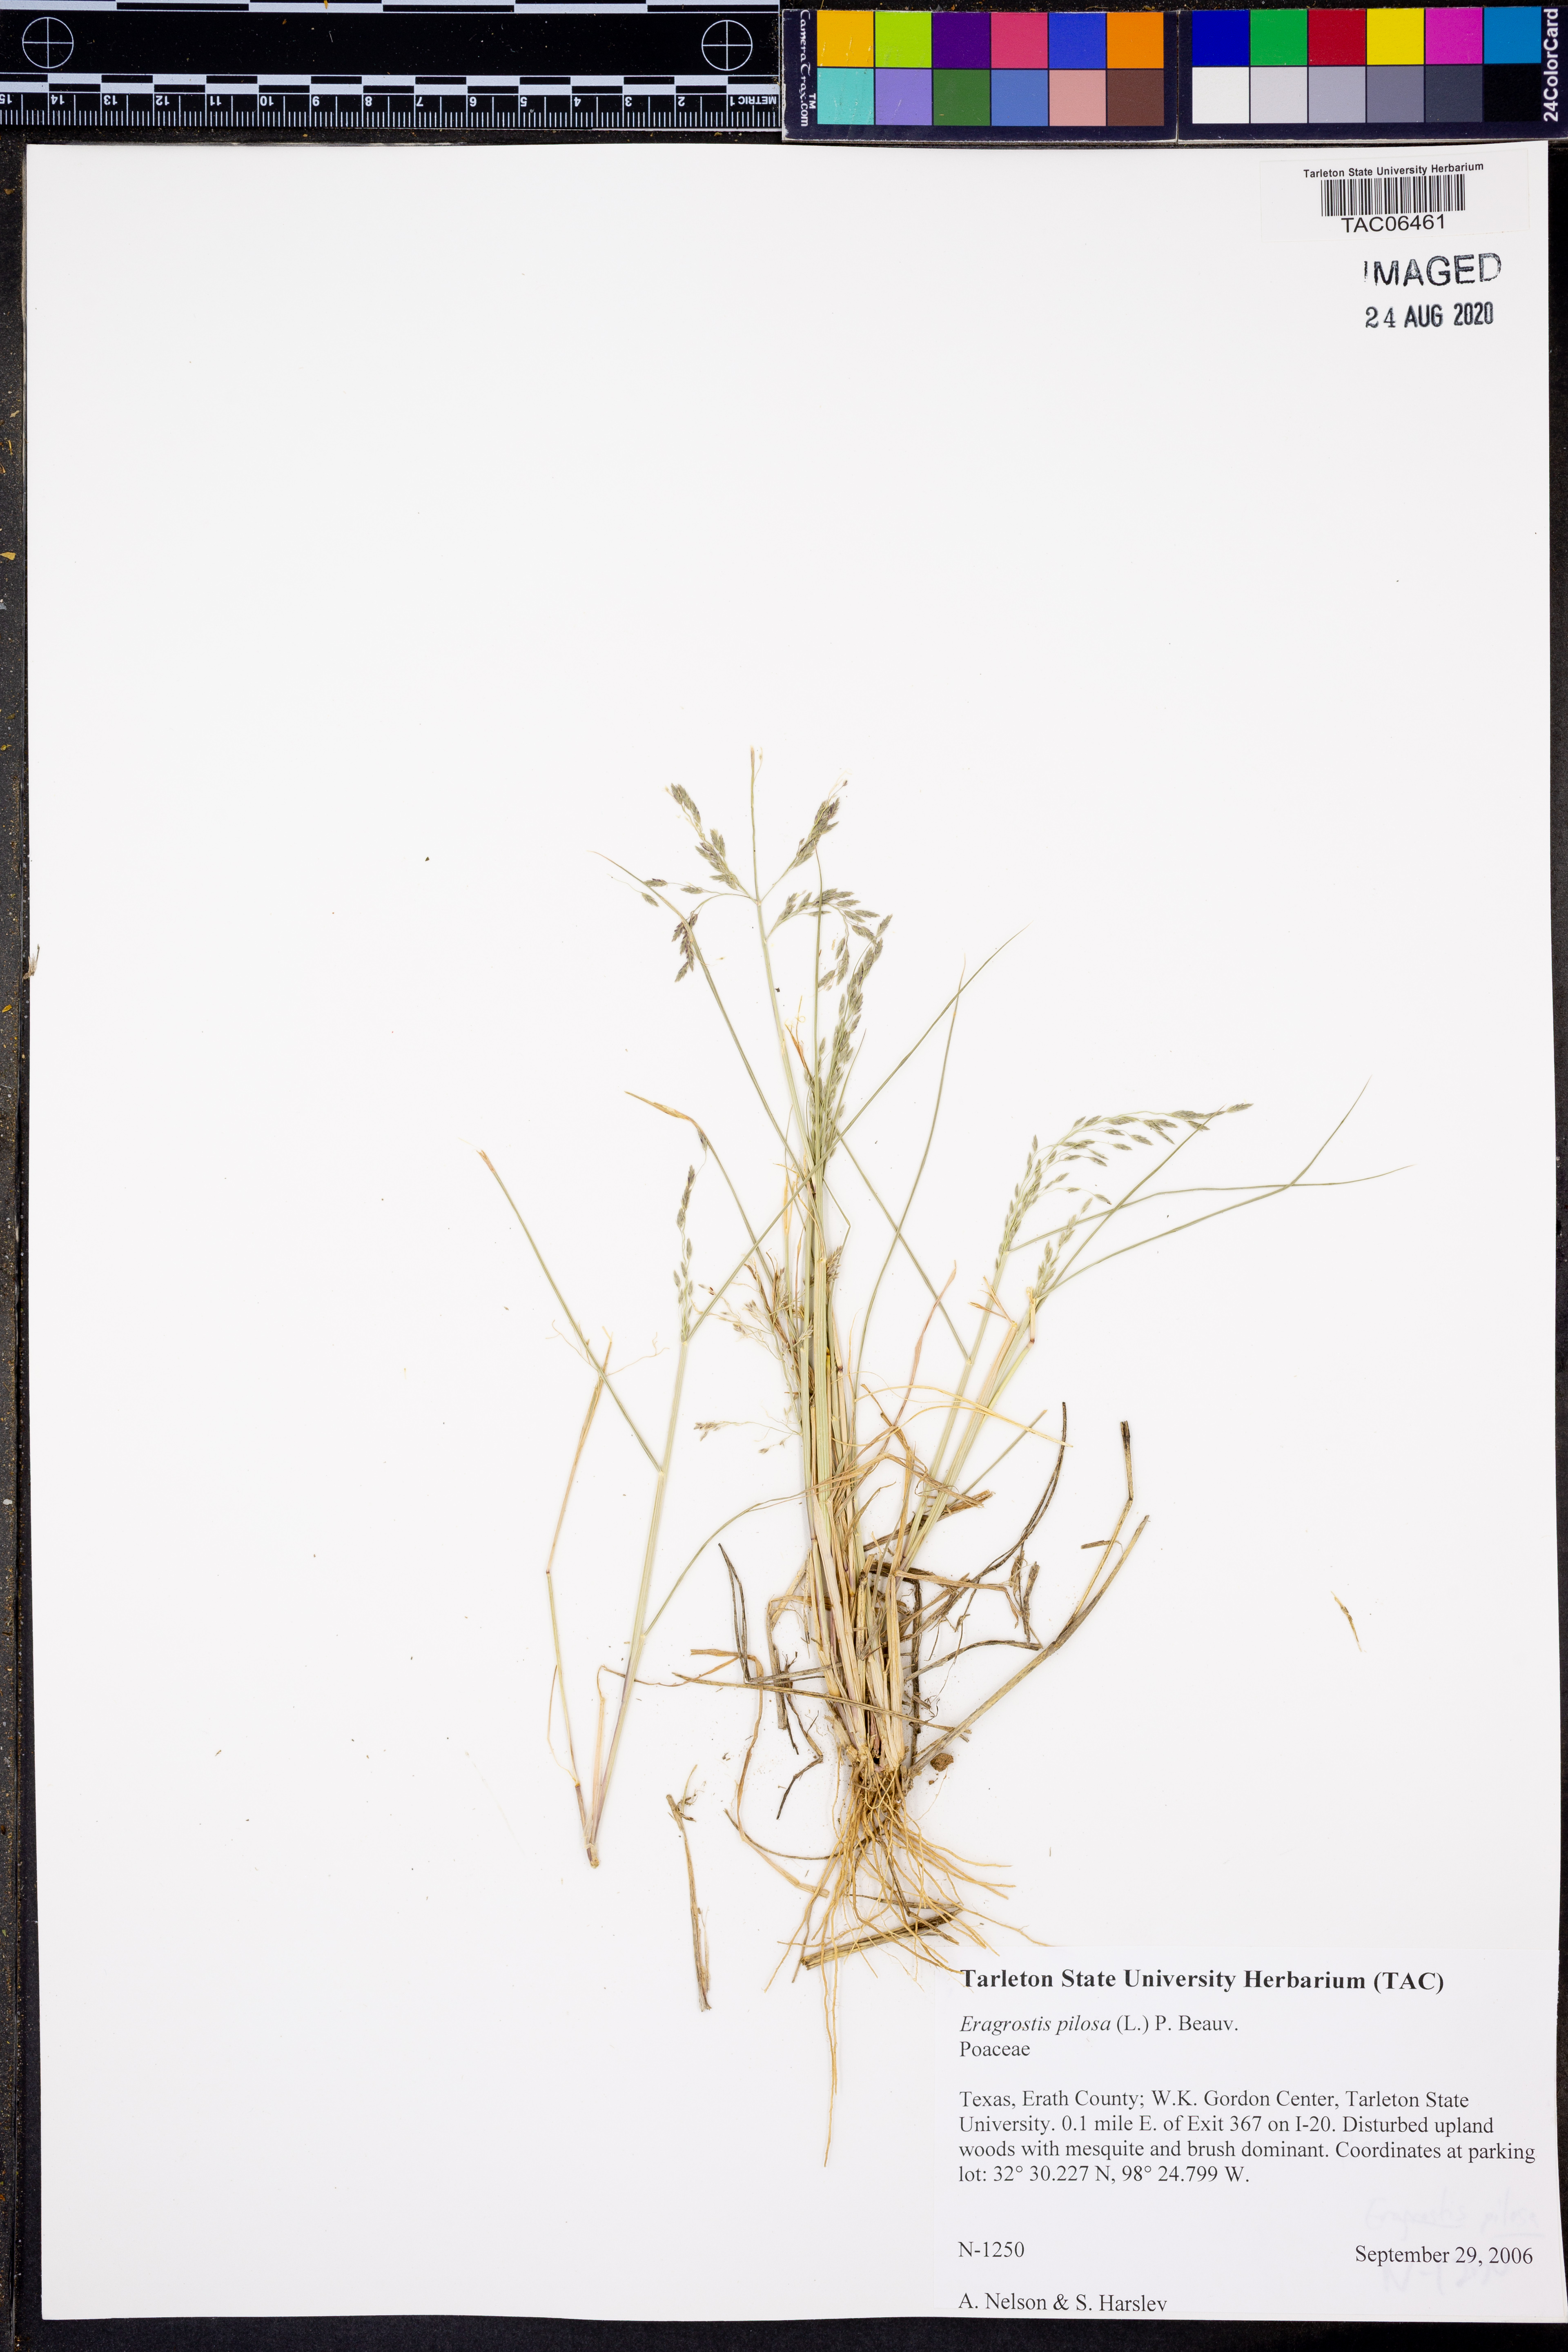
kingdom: Plantae
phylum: Tracheophyta
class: Liliopsida
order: Poales
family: Poaceae
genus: Eragrostis
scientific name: Eragrostis pilosa
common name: Indian lovegrass
